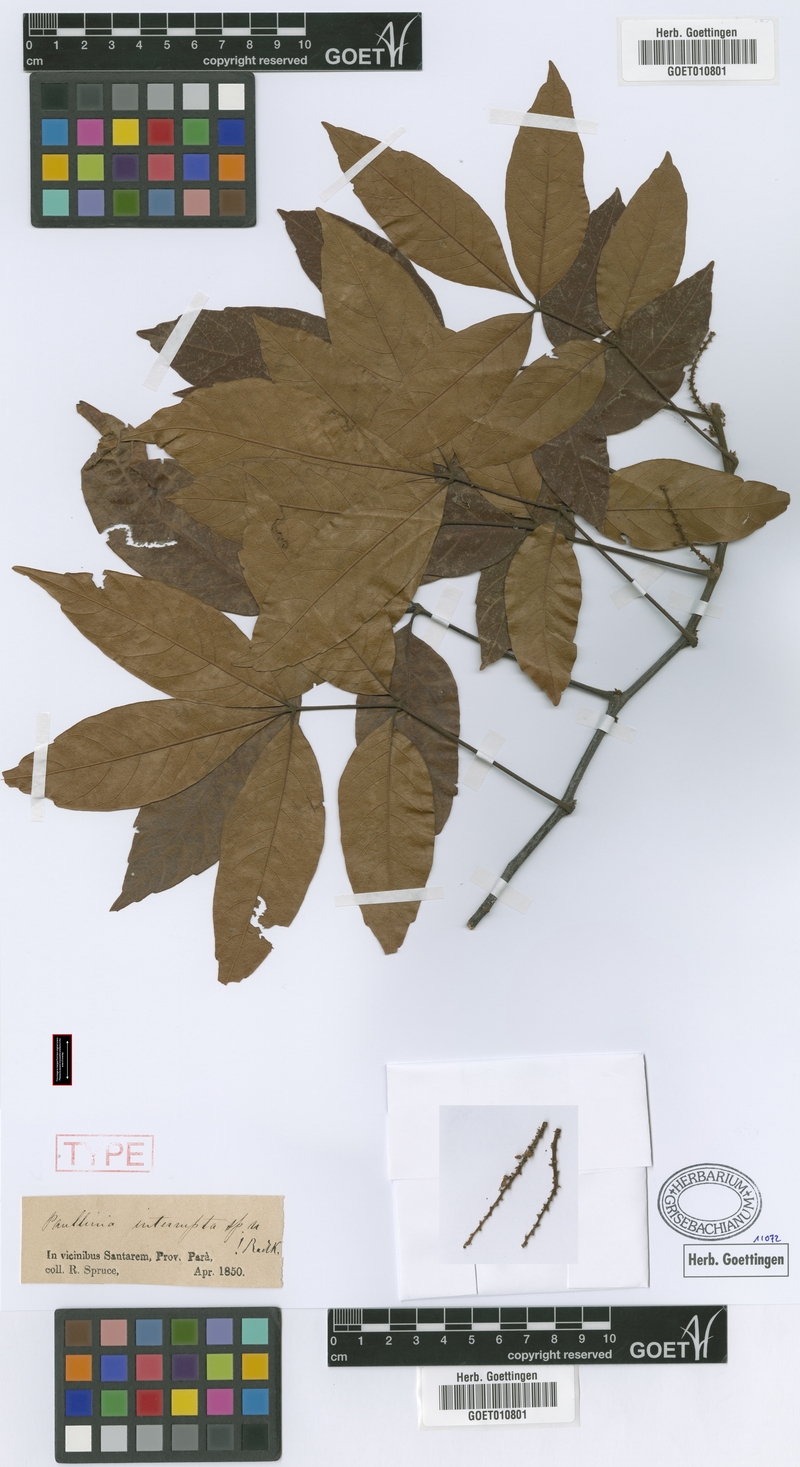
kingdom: Plantae
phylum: Tracheophyta
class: Magnoliopsida
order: Sapindales
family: Sapindaceae
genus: Paullinia
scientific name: Paullinia interrupta
